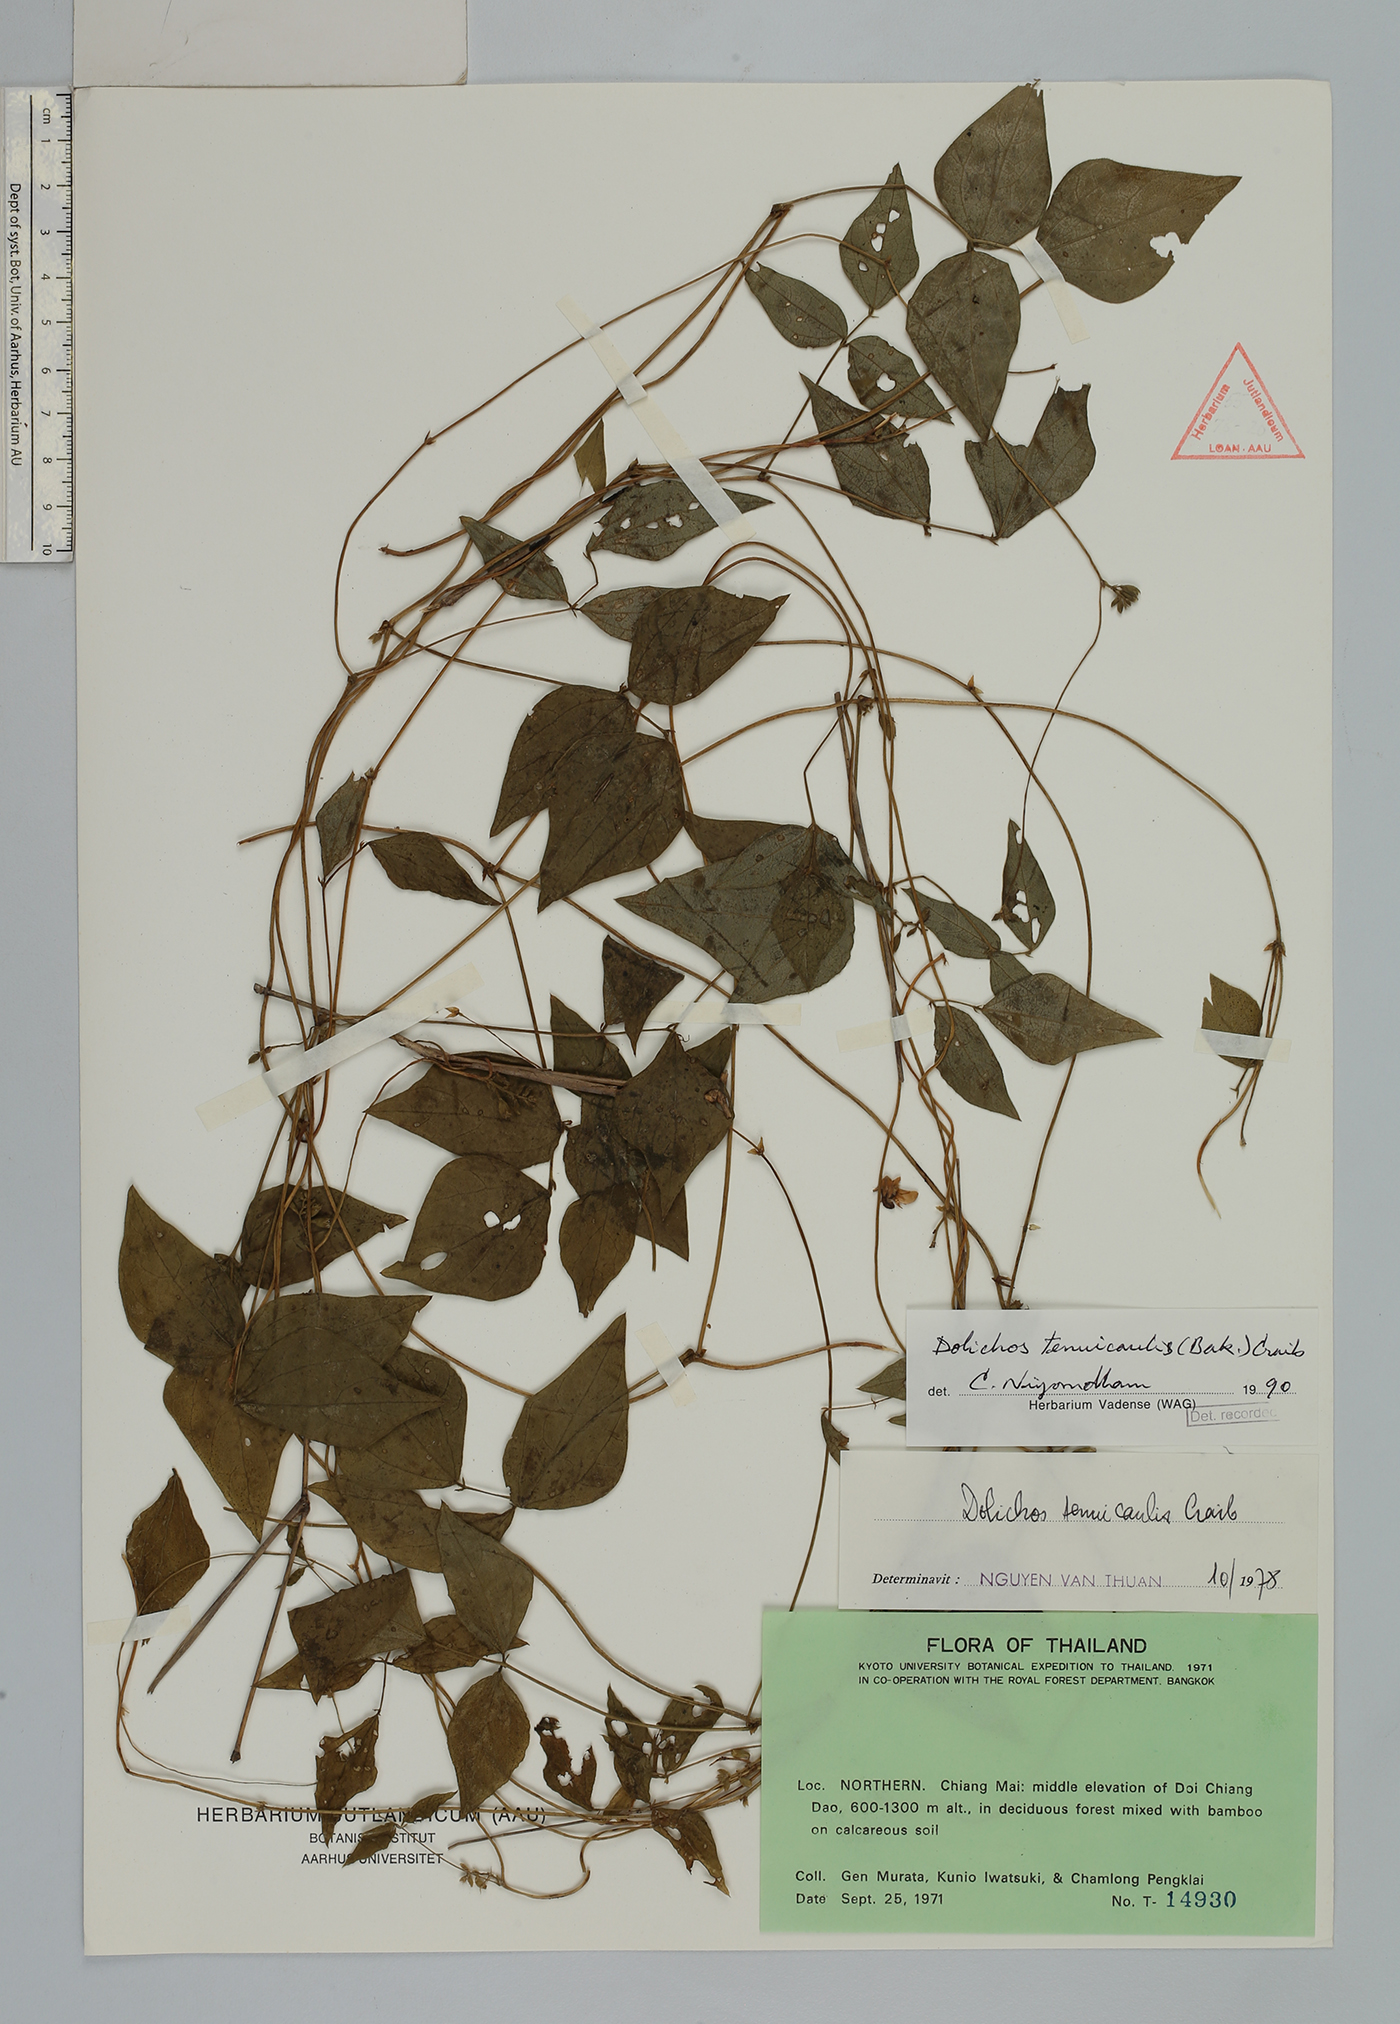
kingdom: Plantae
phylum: Tracheophyta
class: Magnoliopsida
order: Fabales
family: Fabaceae
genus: Dolichos
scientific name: Dolichos tenuicaulis
